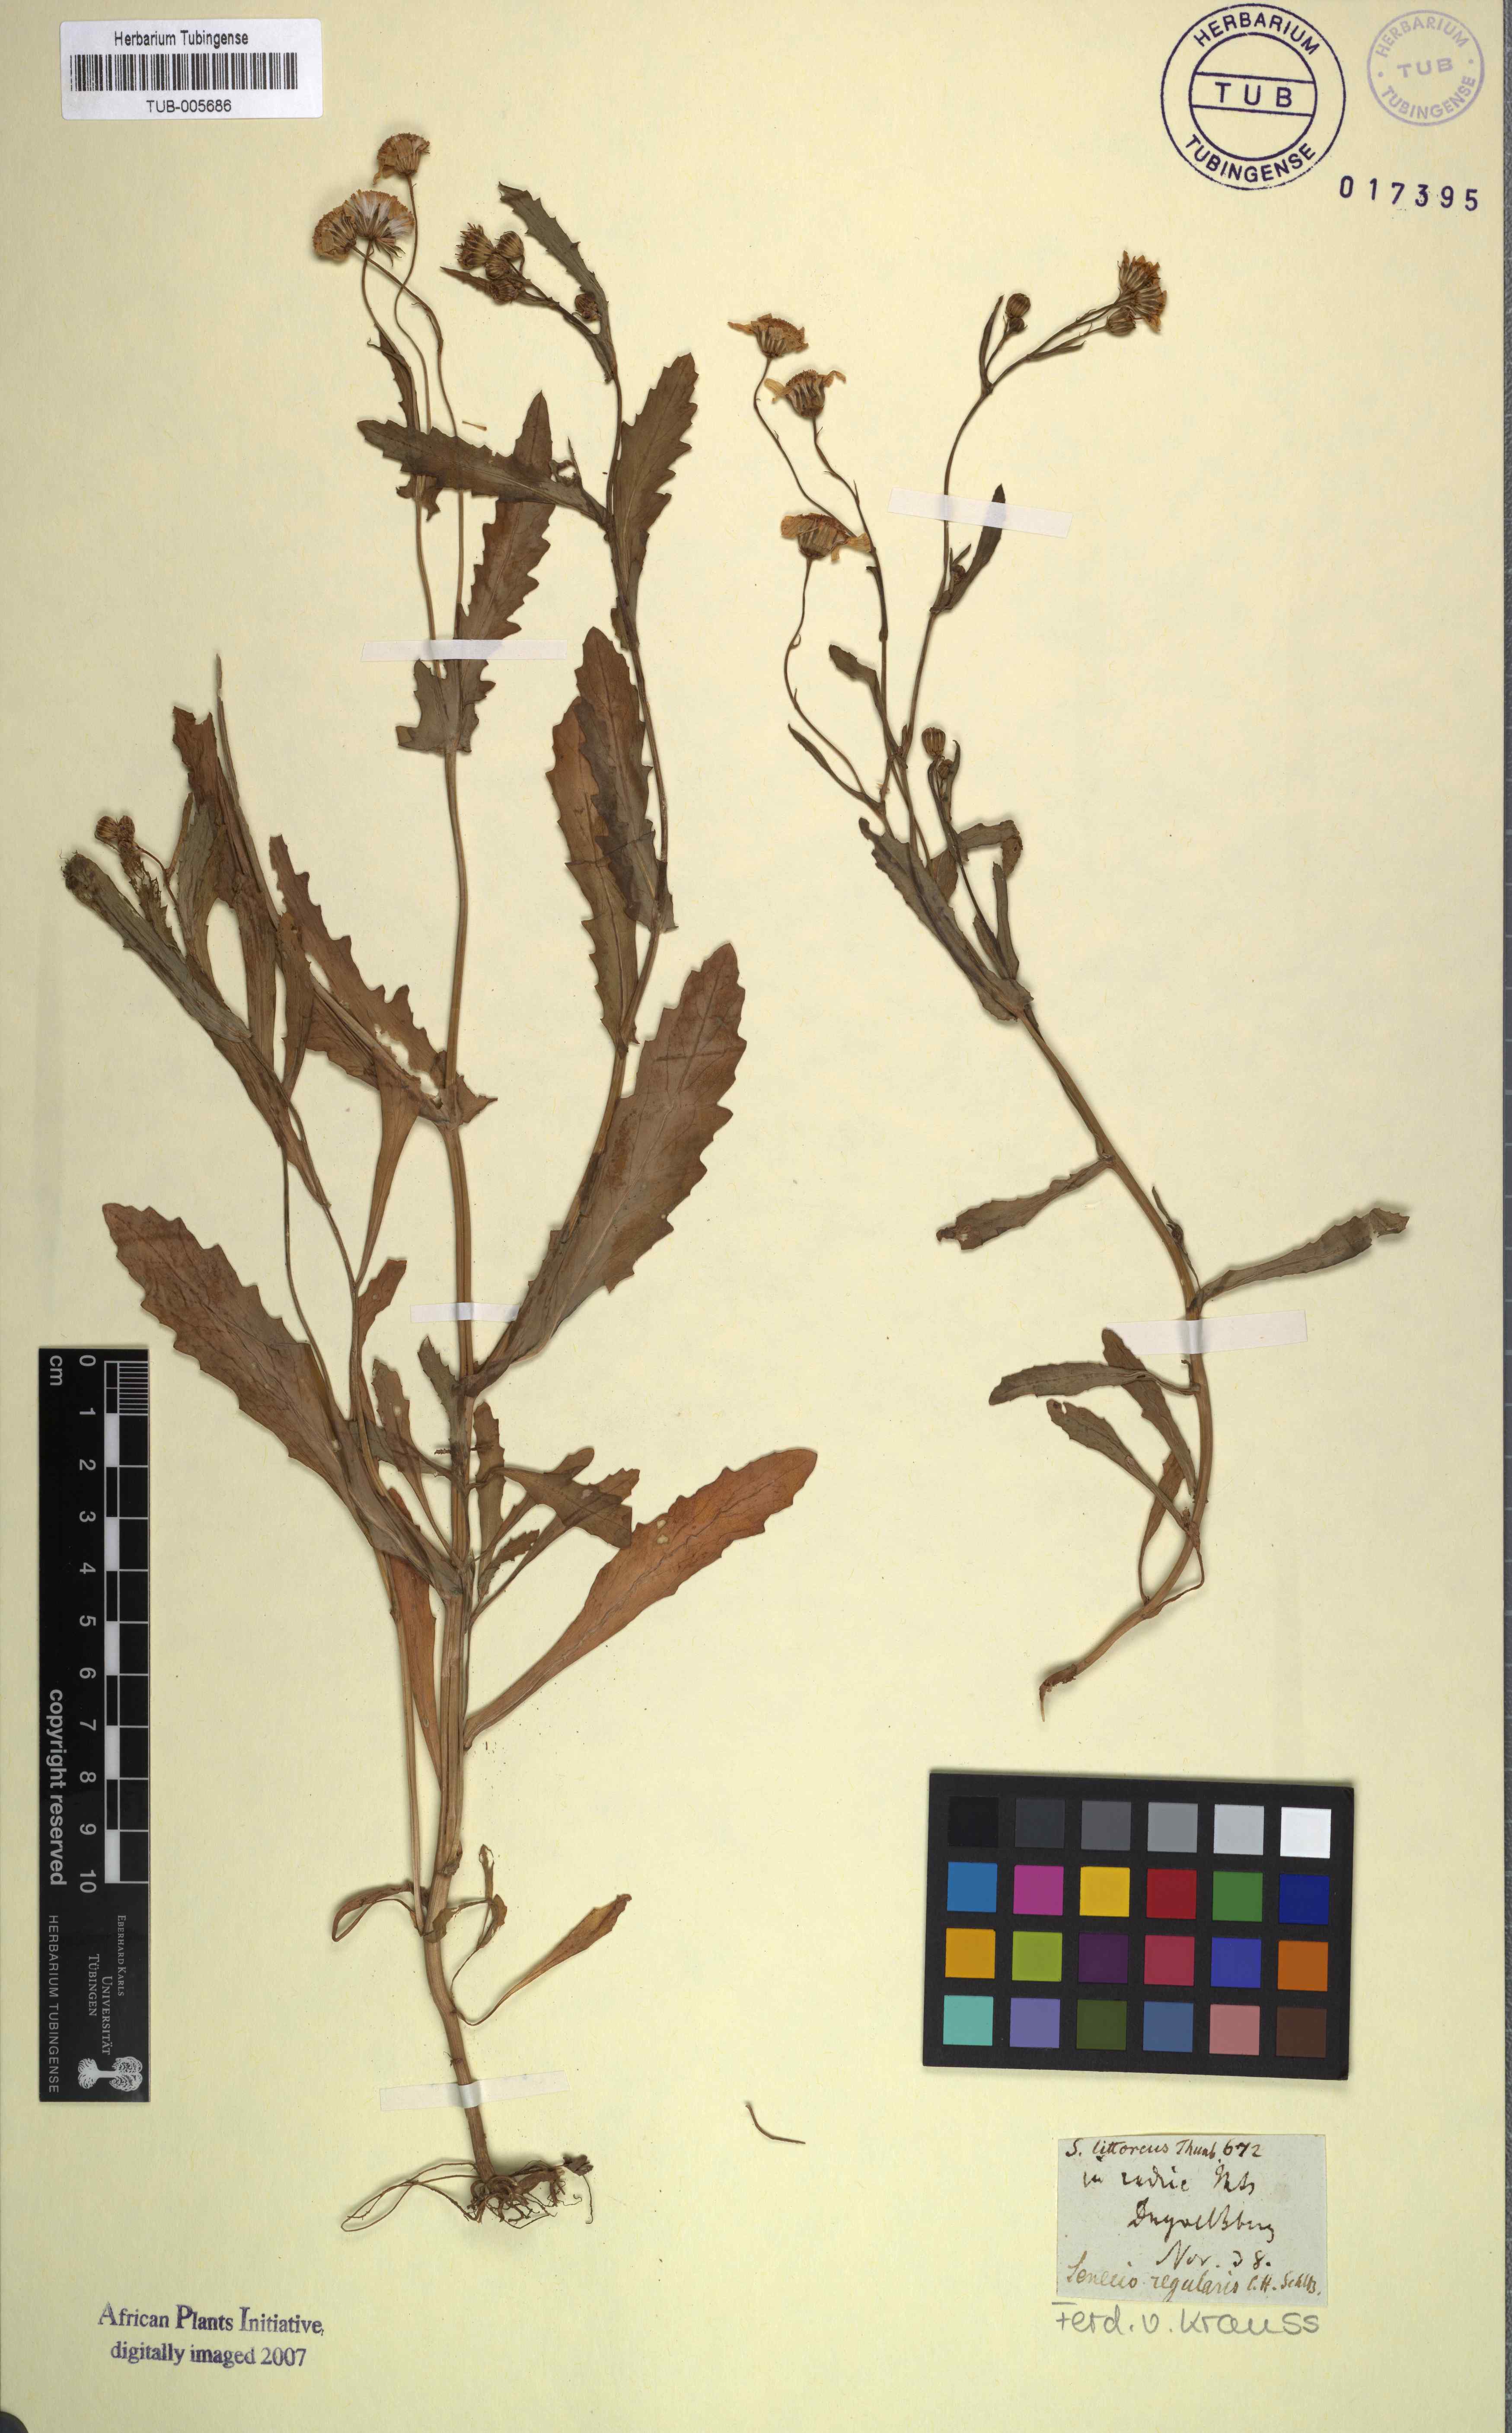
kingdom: Plantae
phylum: Tracheophyta
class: Magnoliopsida
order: Asterales
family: Asteraceae
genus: Senecio
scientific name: Senecio littoreus
